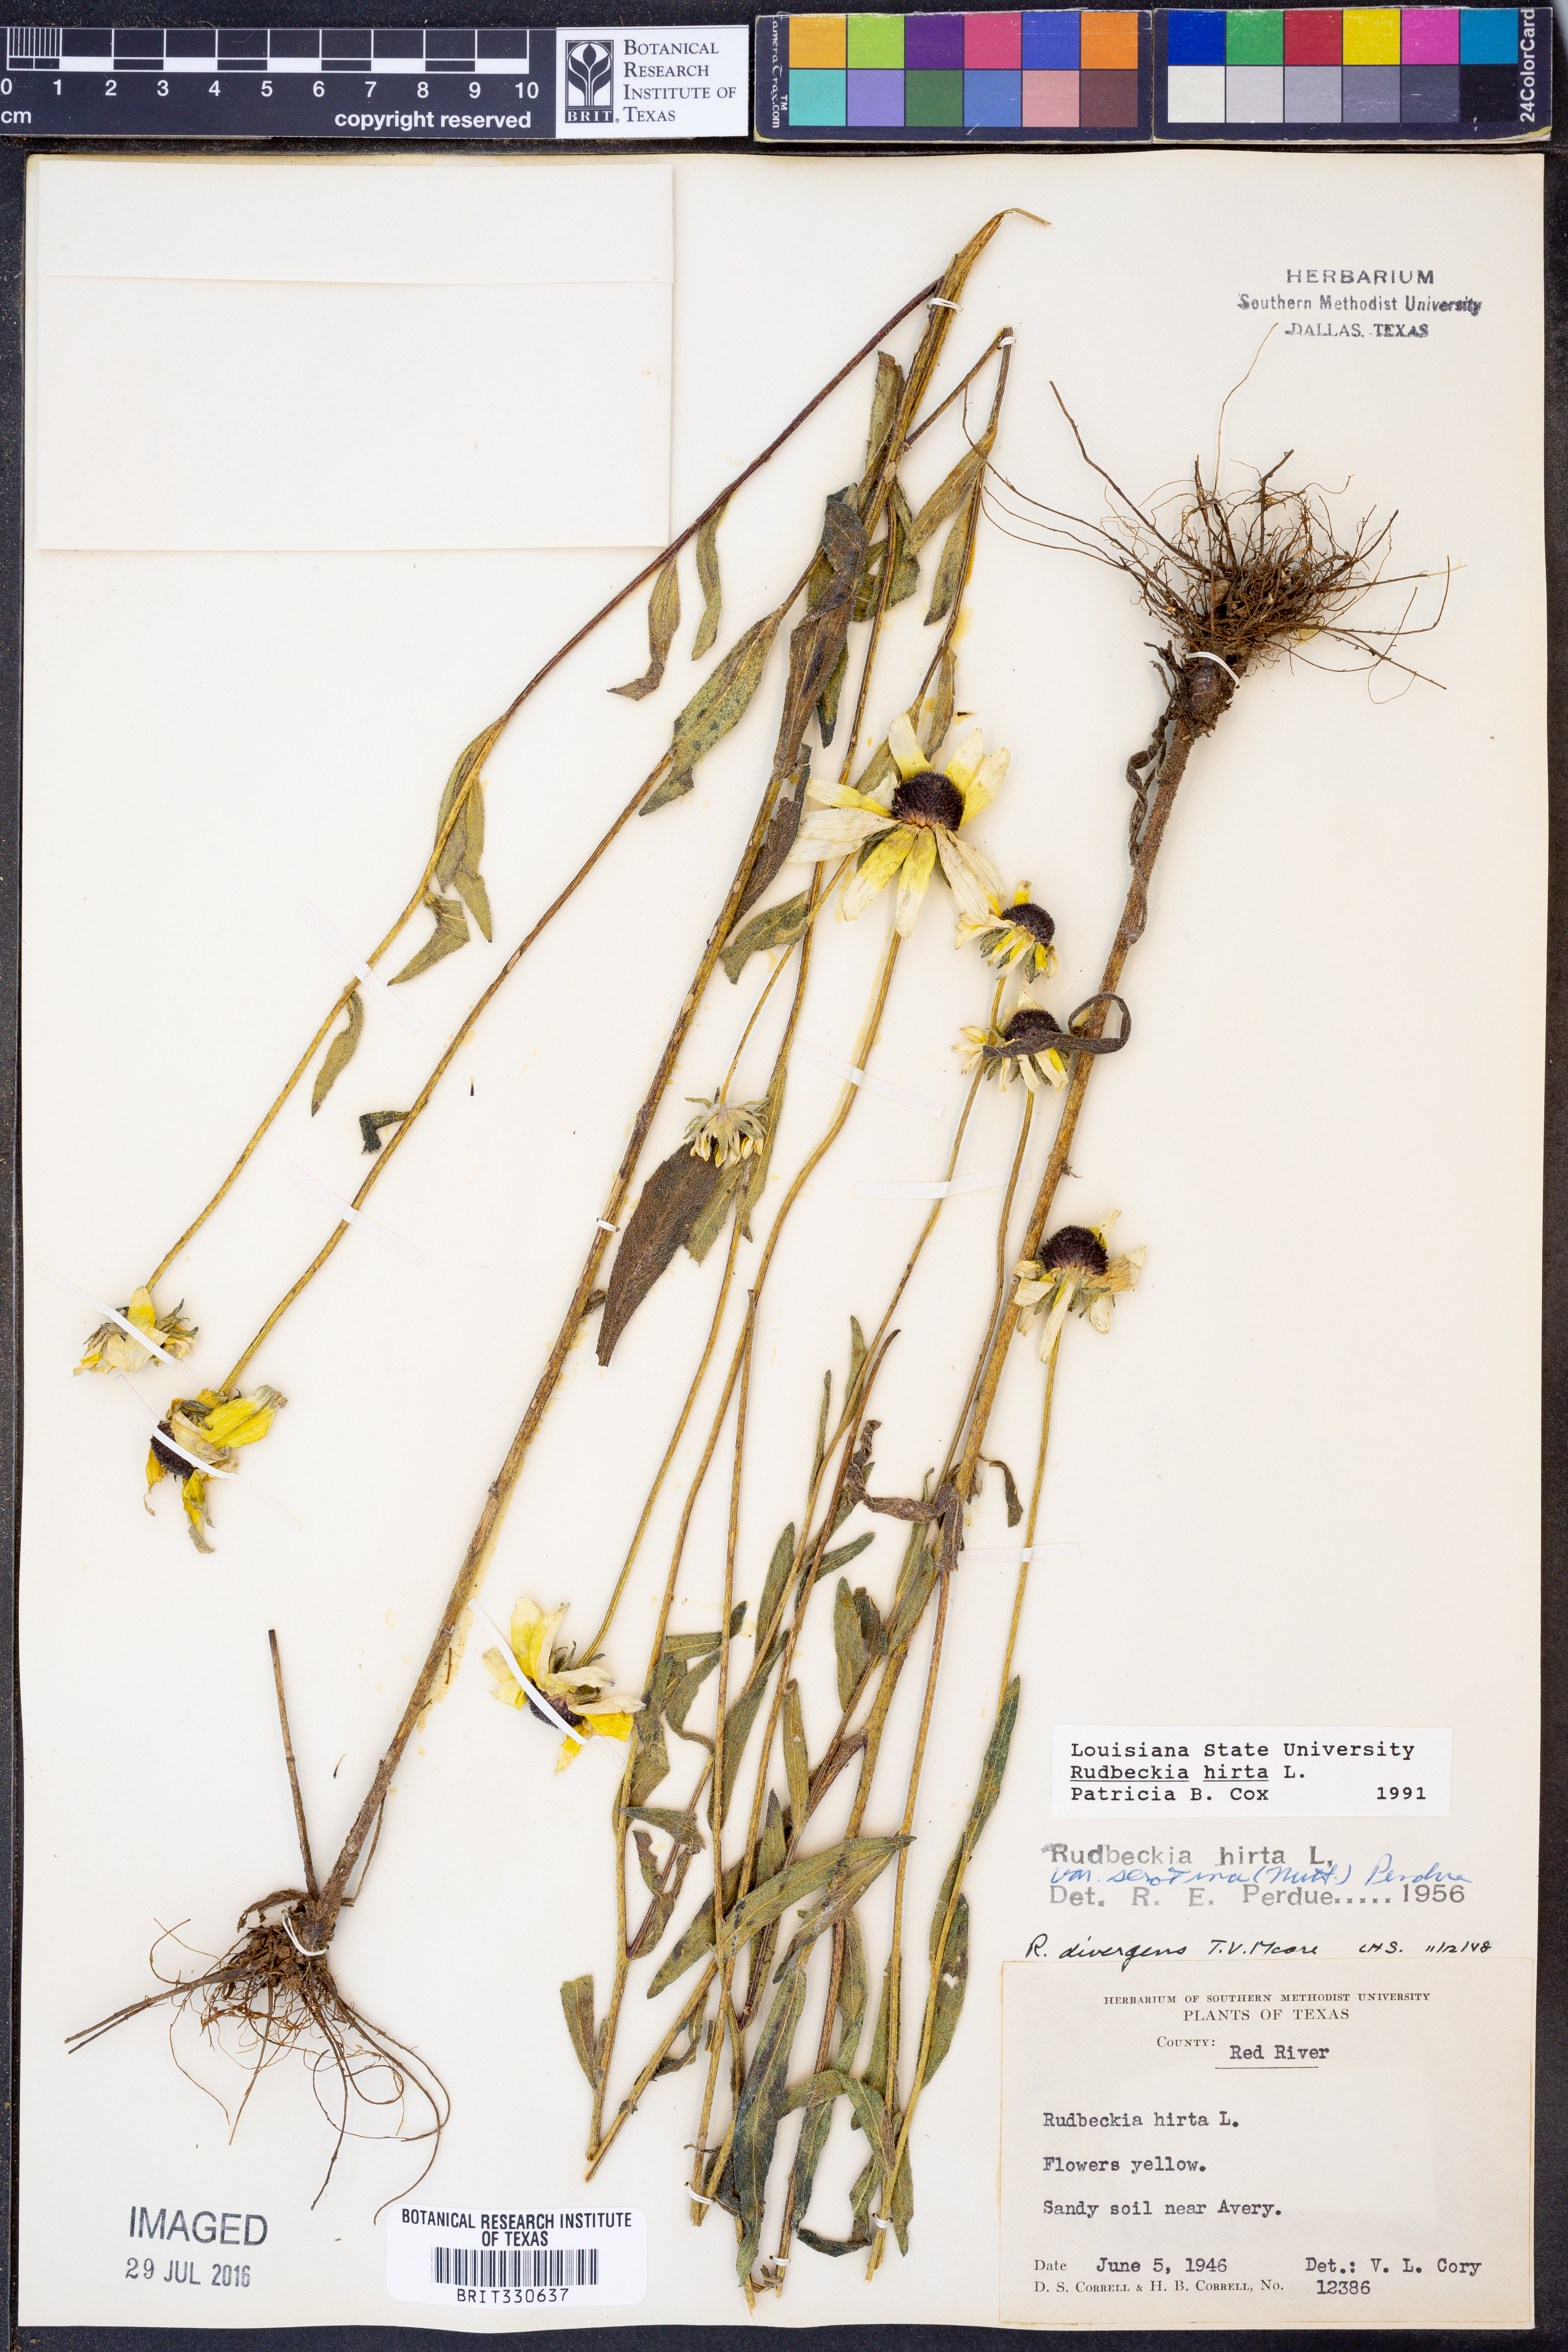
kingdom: Plantae
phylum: Tracheophyta
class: Magnoliopsida
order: Asterales
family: Asteraceae
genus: Rudbeckia
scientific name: Rudbeckia hirta
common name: Black-eyed-susan
